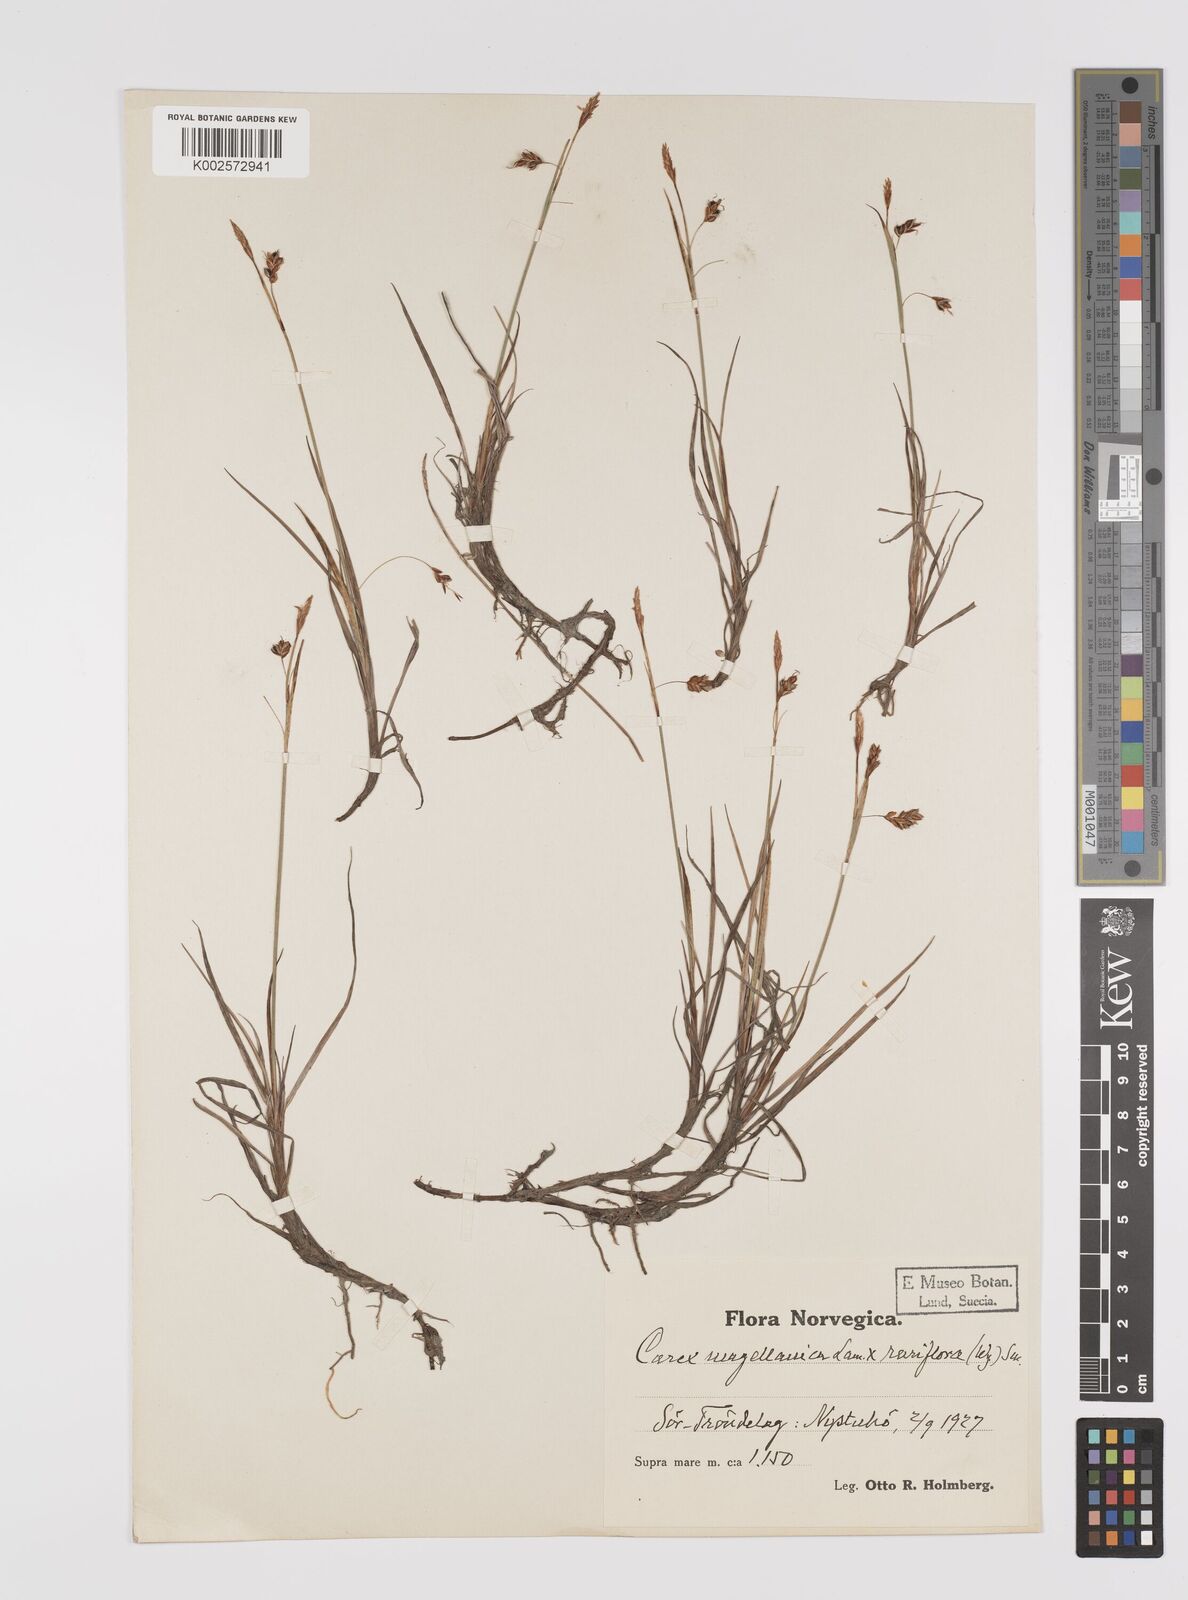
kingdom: Plantae
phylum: Tracheophyta
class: Liliopsida
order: Poales
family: Cyperaceae
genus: Carex
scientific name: Carex rariflora
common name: Loose-flowered alpine sedge
